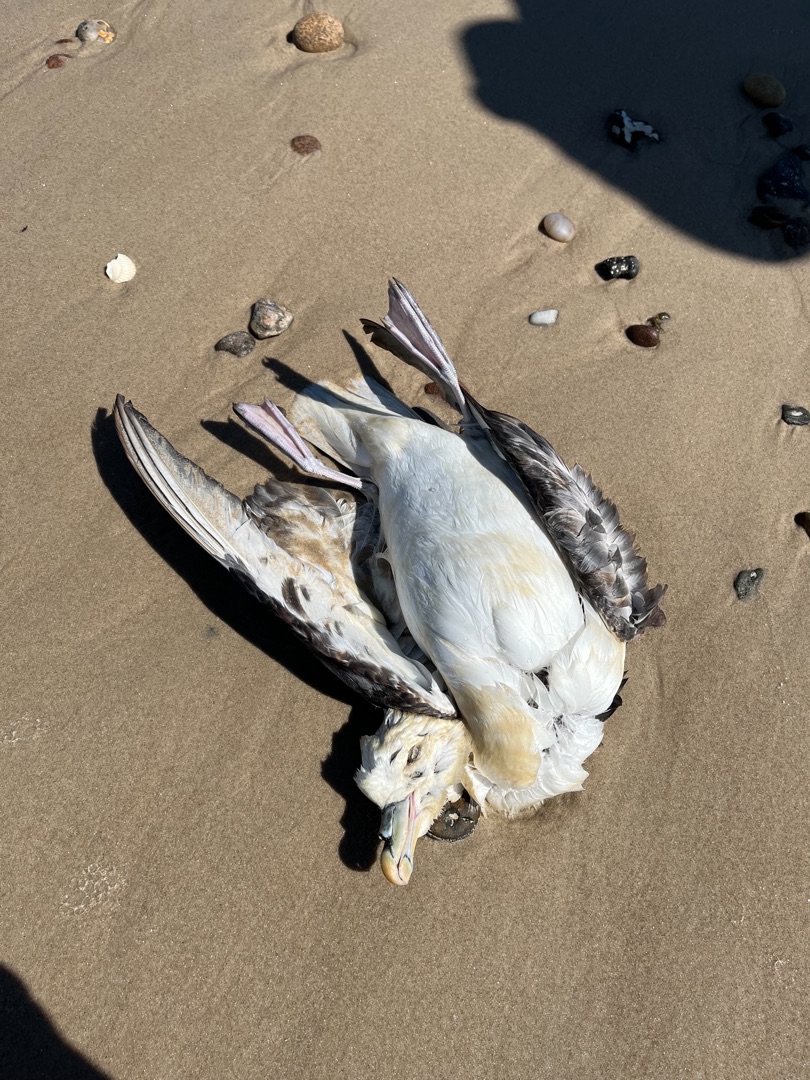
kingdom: Animalia
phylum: Chordata
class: Aves
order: Procellariiformes
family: Procellariidae
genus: Fulmarus
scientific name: Fulmarus glacialis
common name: Mallemuk
